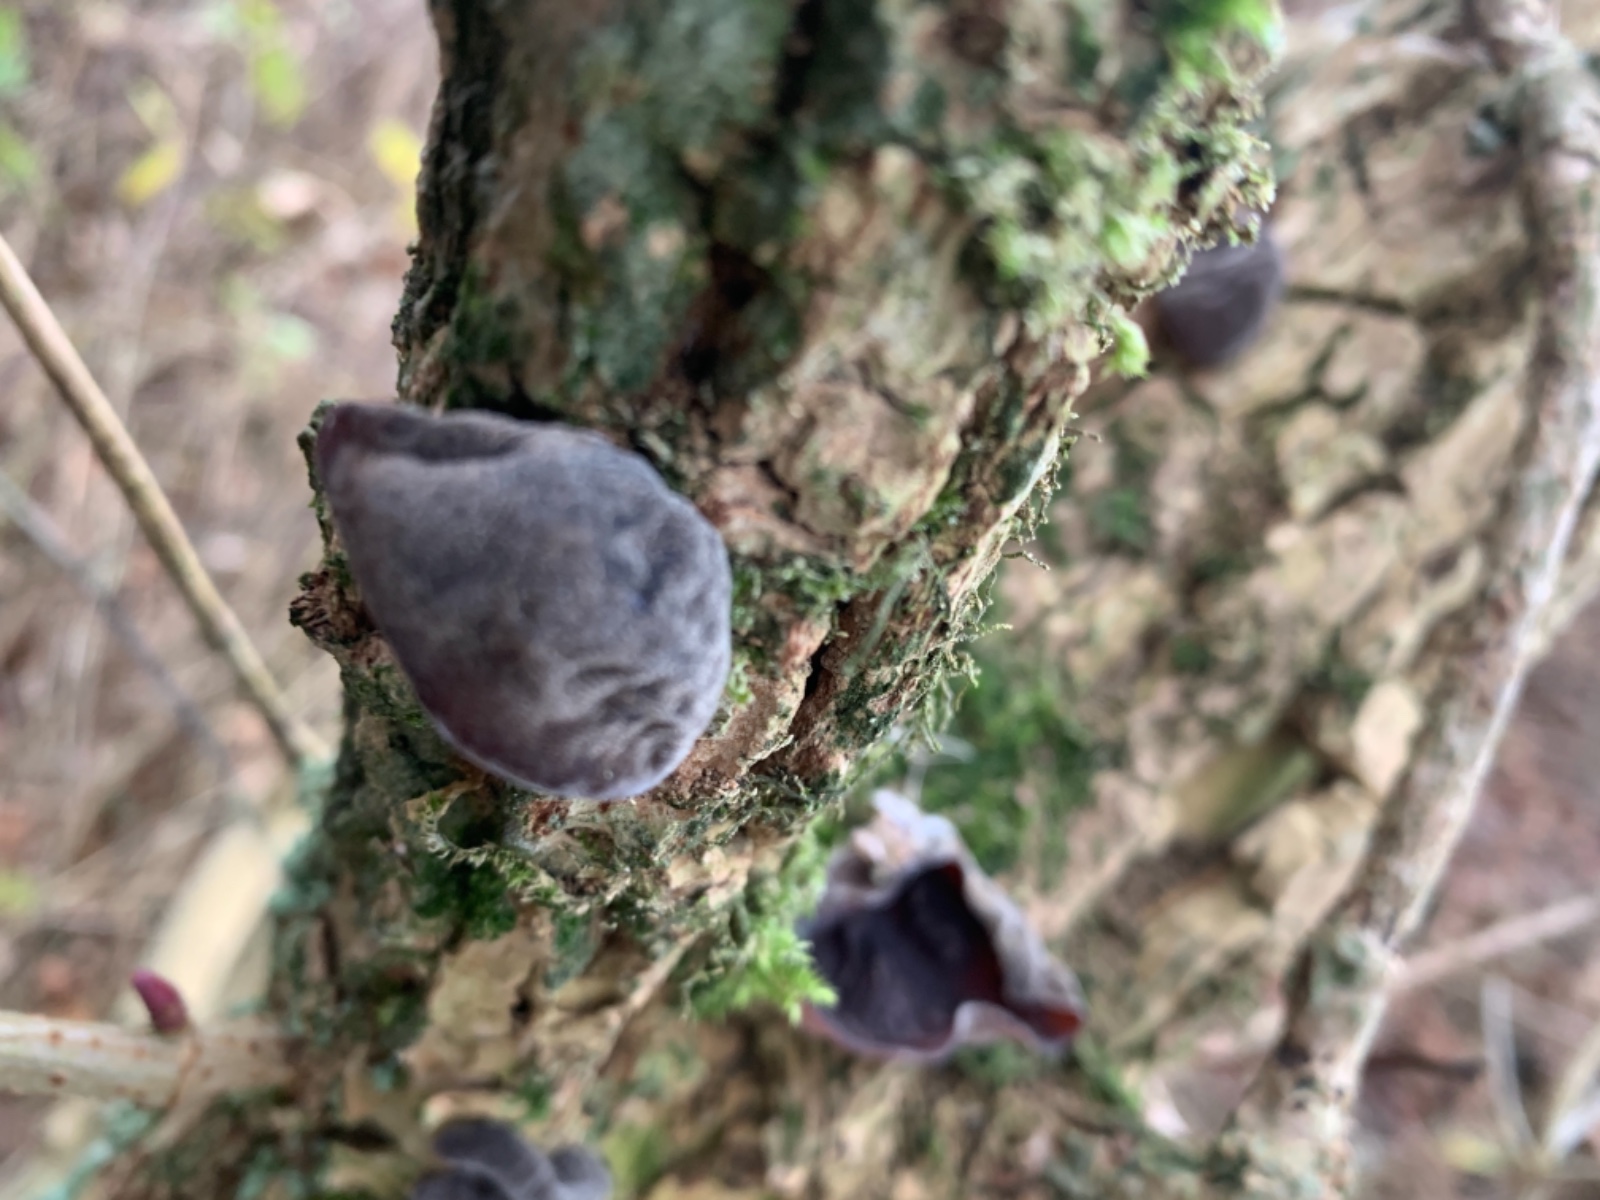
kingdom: Fungi
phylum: Basidiomycota
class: Agaricomycetes
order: Auriculariales
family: Auriculariaceae
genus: Auricularia
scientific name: Auricularia auricula-judae
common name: almindelig judasøre
